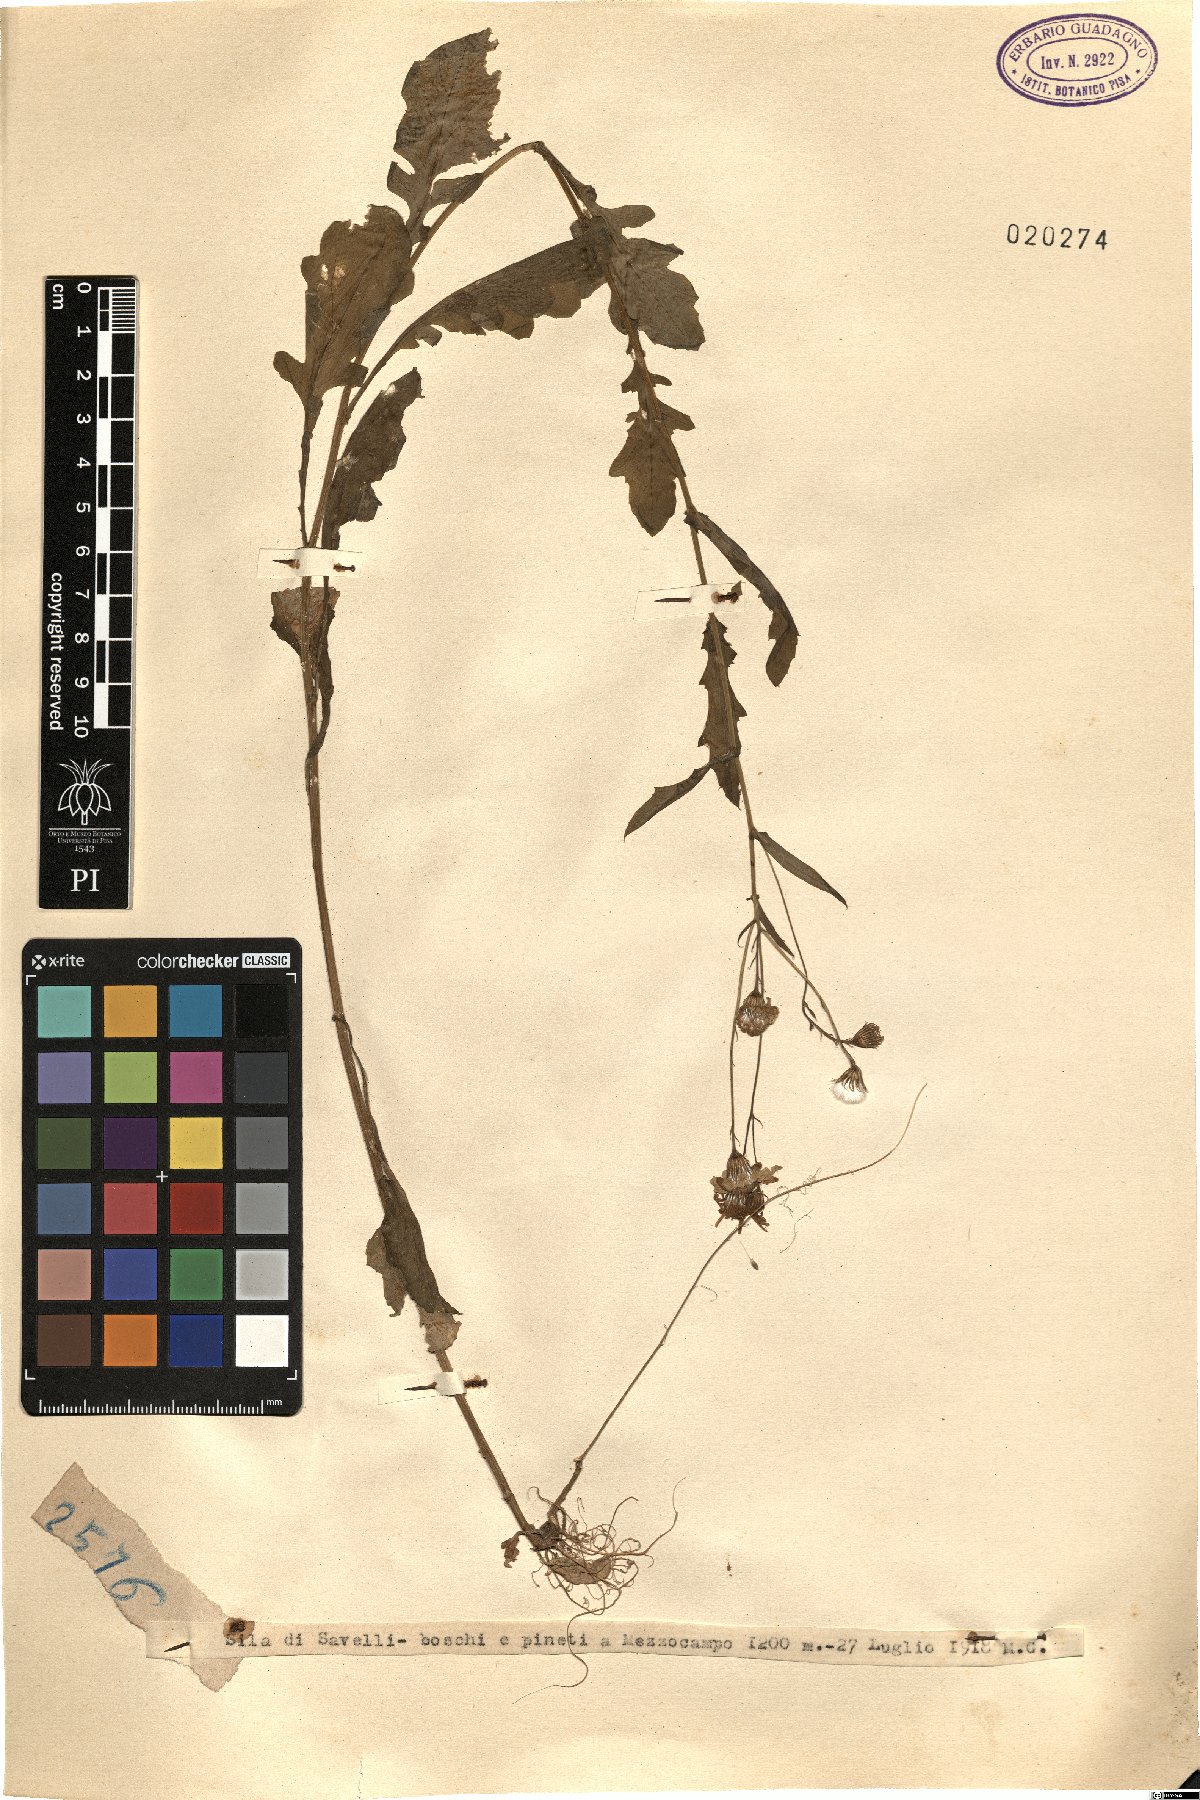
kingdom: Plantae
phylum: Tracheophyta
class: Magnoliopsida
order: Asterales
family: Asteraceae
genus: Senecio
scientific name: Senecio
